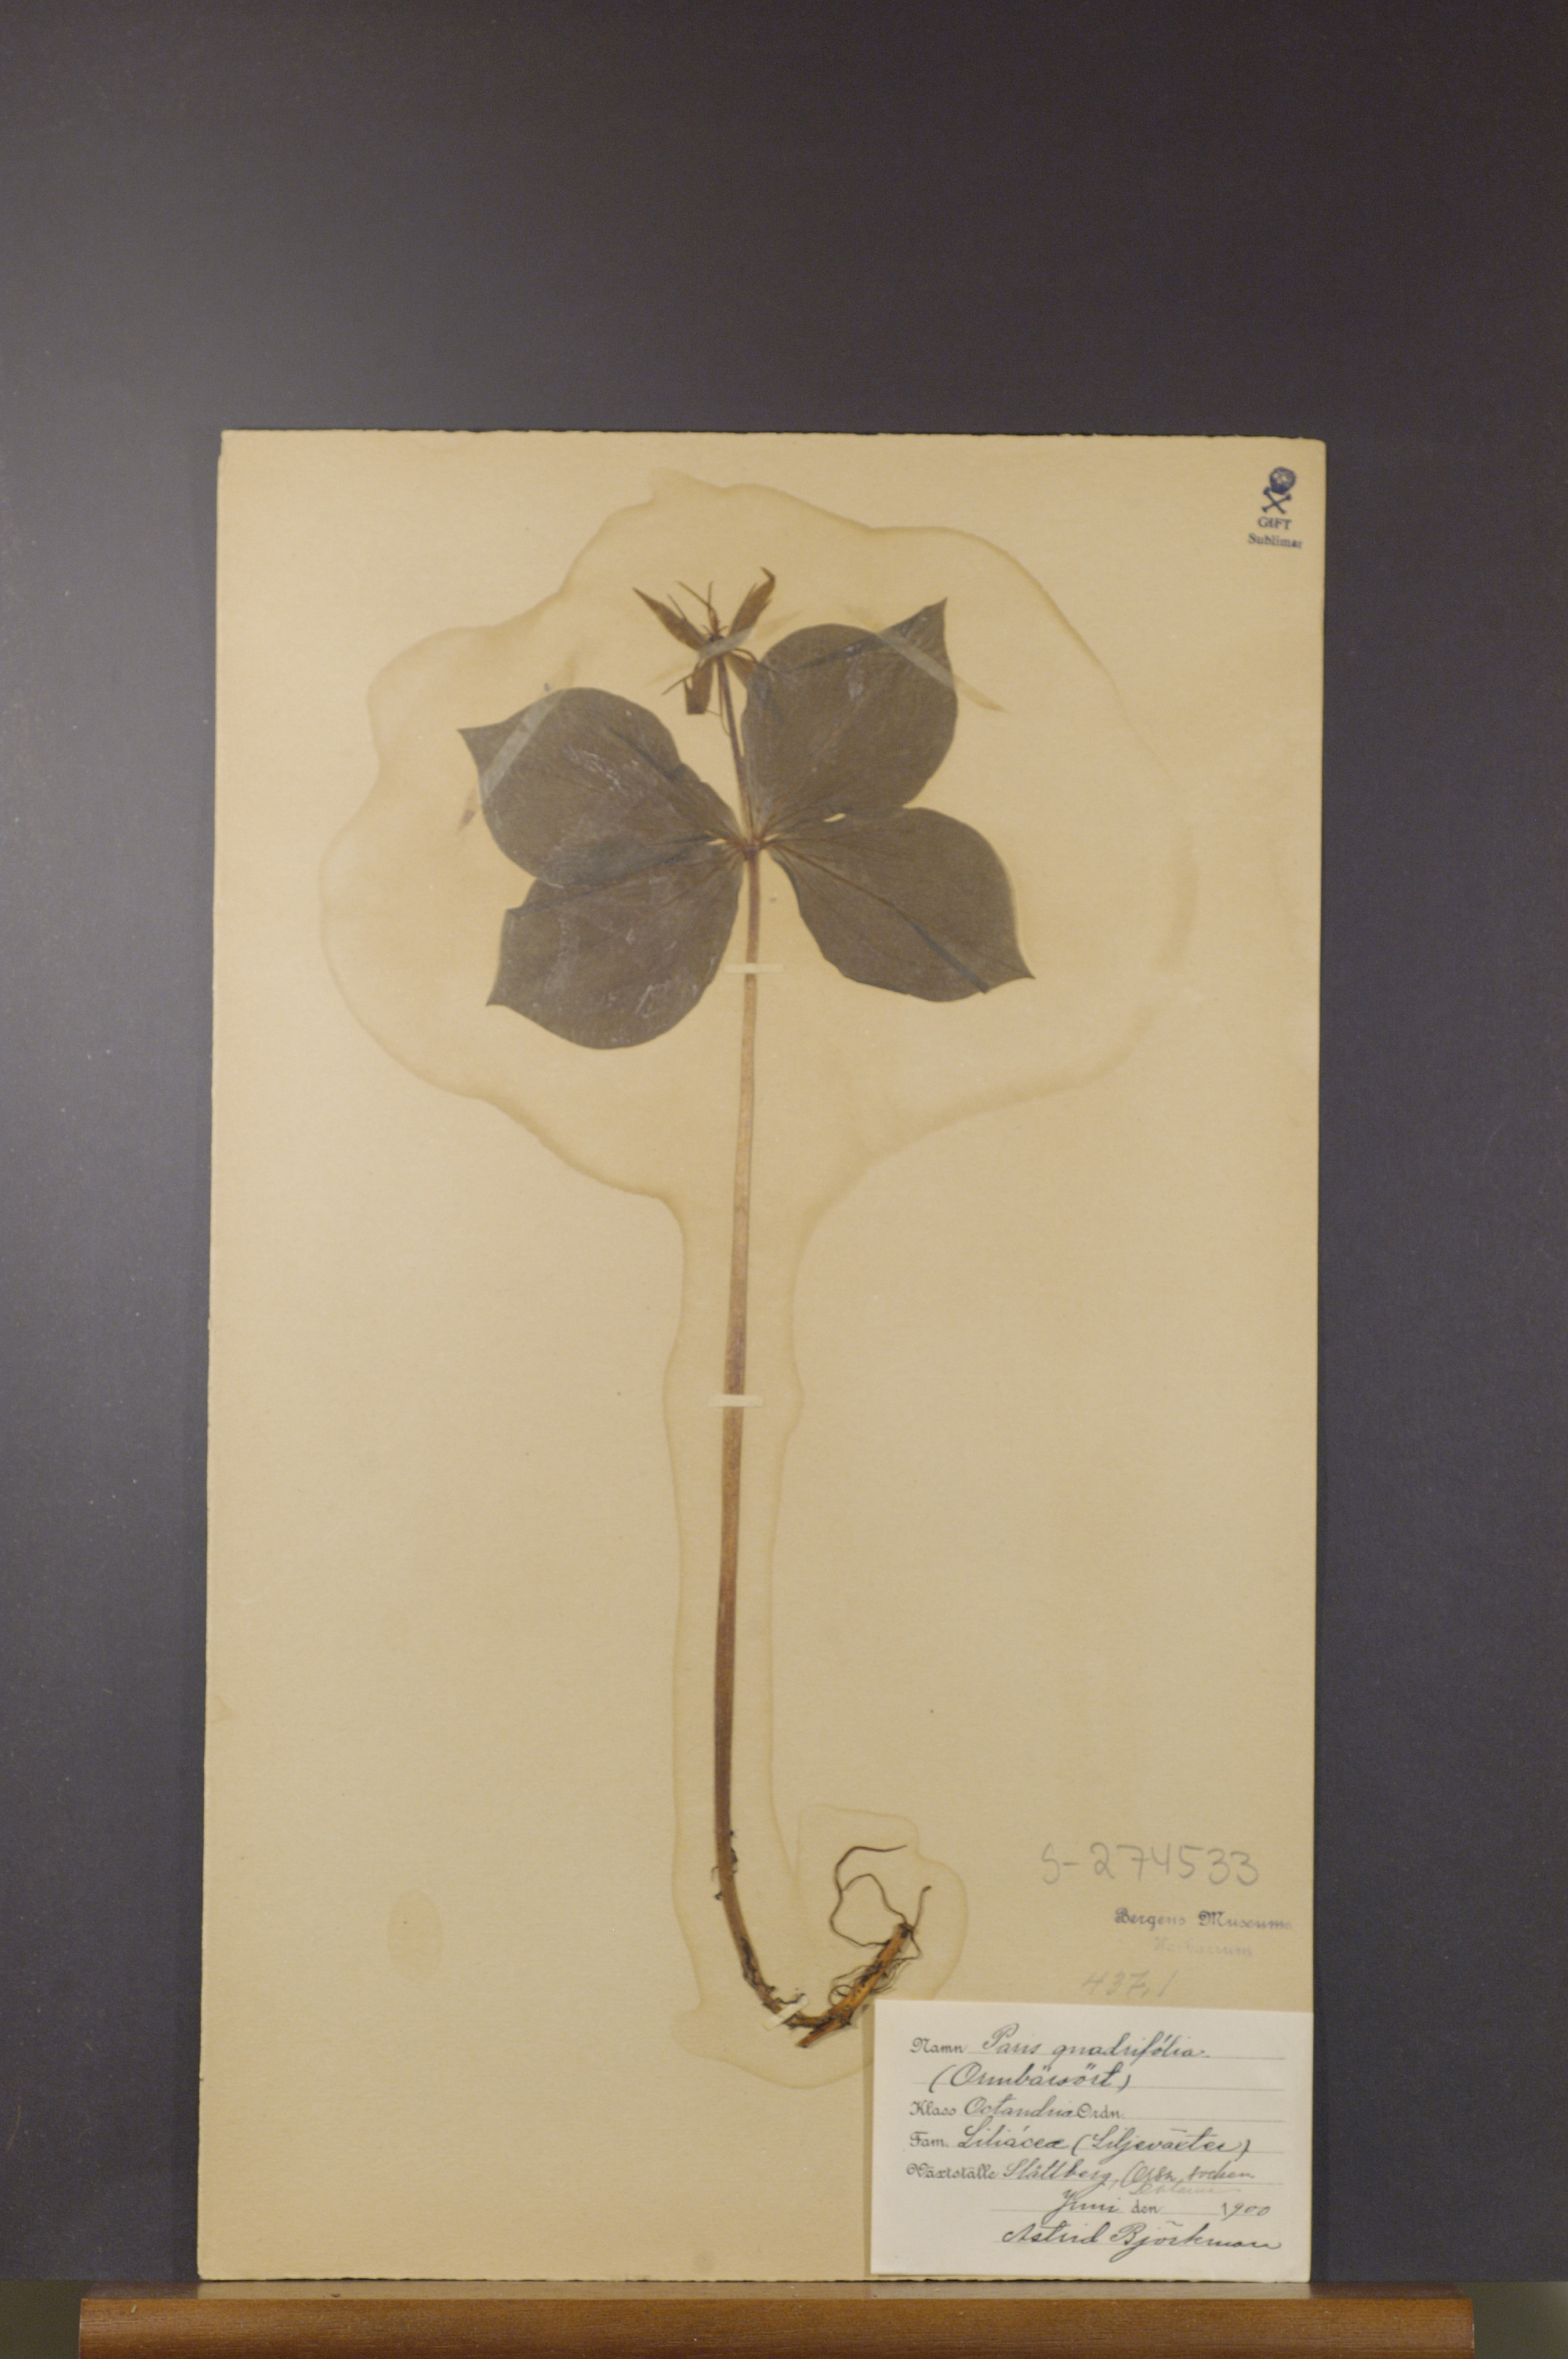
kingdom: Plantae
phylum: Tracheophyta
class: Liliopsida
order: Liliales
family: Melanthiaceae
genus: Paris
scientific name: Paris quadrifolia
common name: Herb-paris
